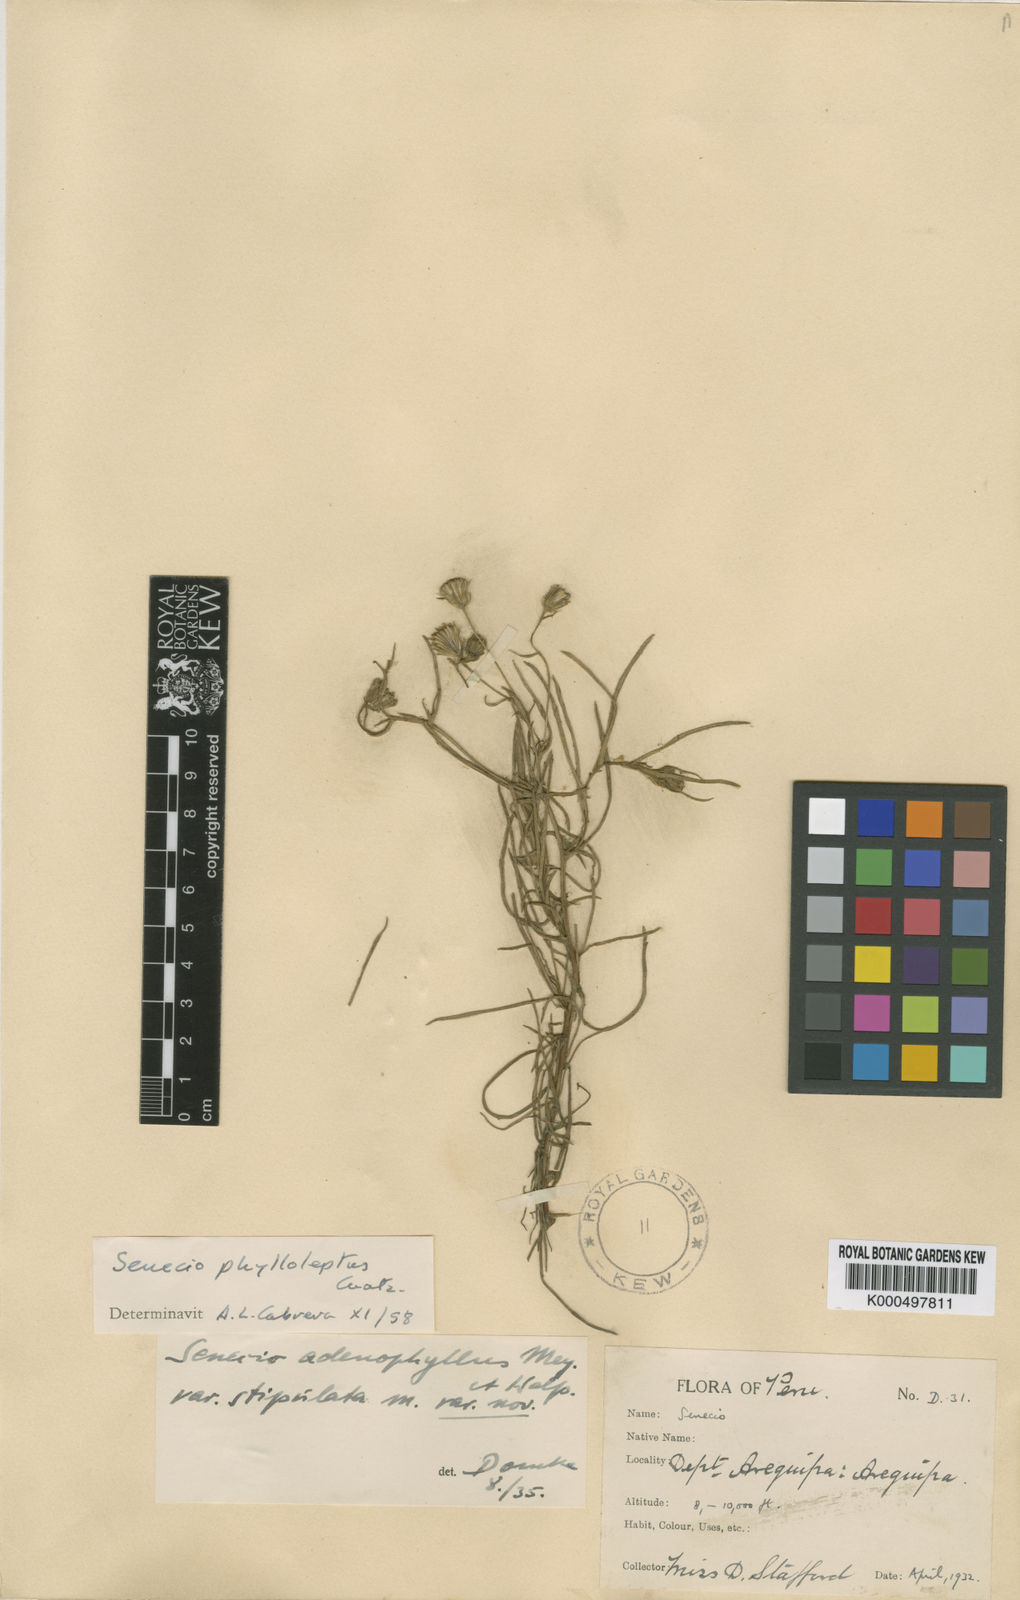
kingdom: Plantae
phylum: Tracheophyta
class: Magnoliopsida
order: Asterales
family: Asteraceae
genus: Senecio
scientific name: Senecio phylloleptus
